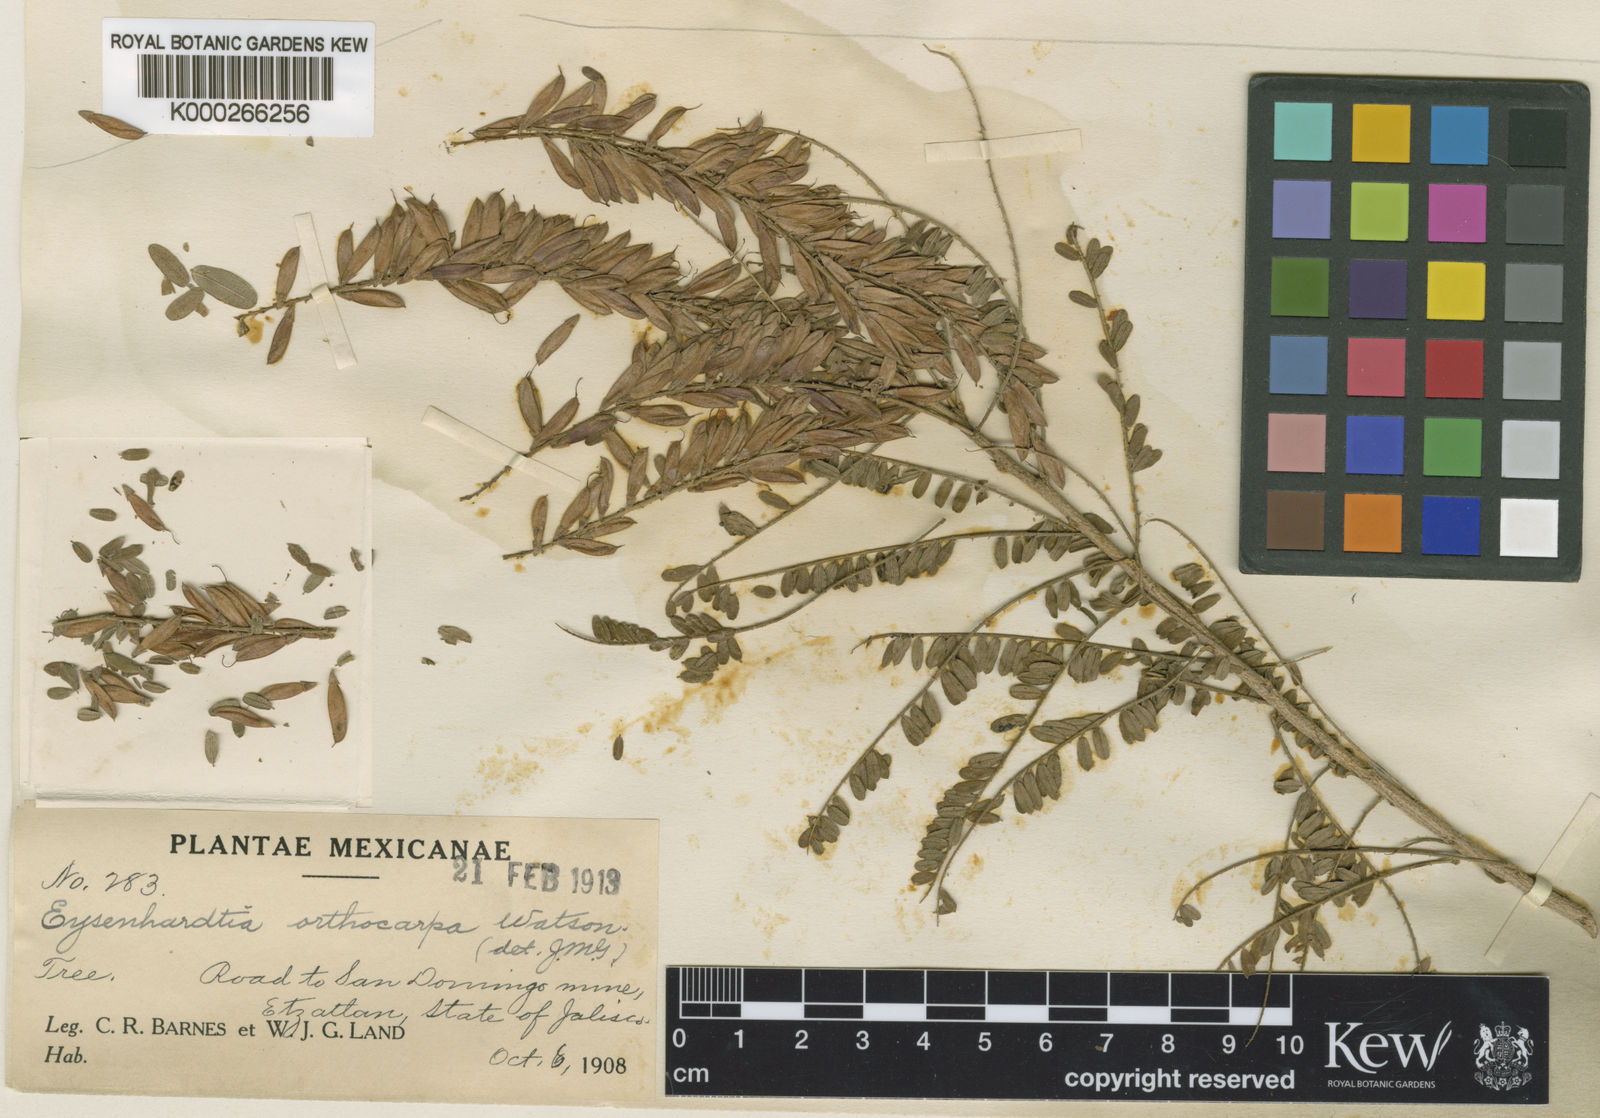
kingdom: Plantae
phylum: Tracheophyta
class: Magnoliopsida
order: Fabales
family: Fabaceae
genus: Eysenhardtia
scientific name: Eysenhardtia polystachya
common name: Kidneywood
